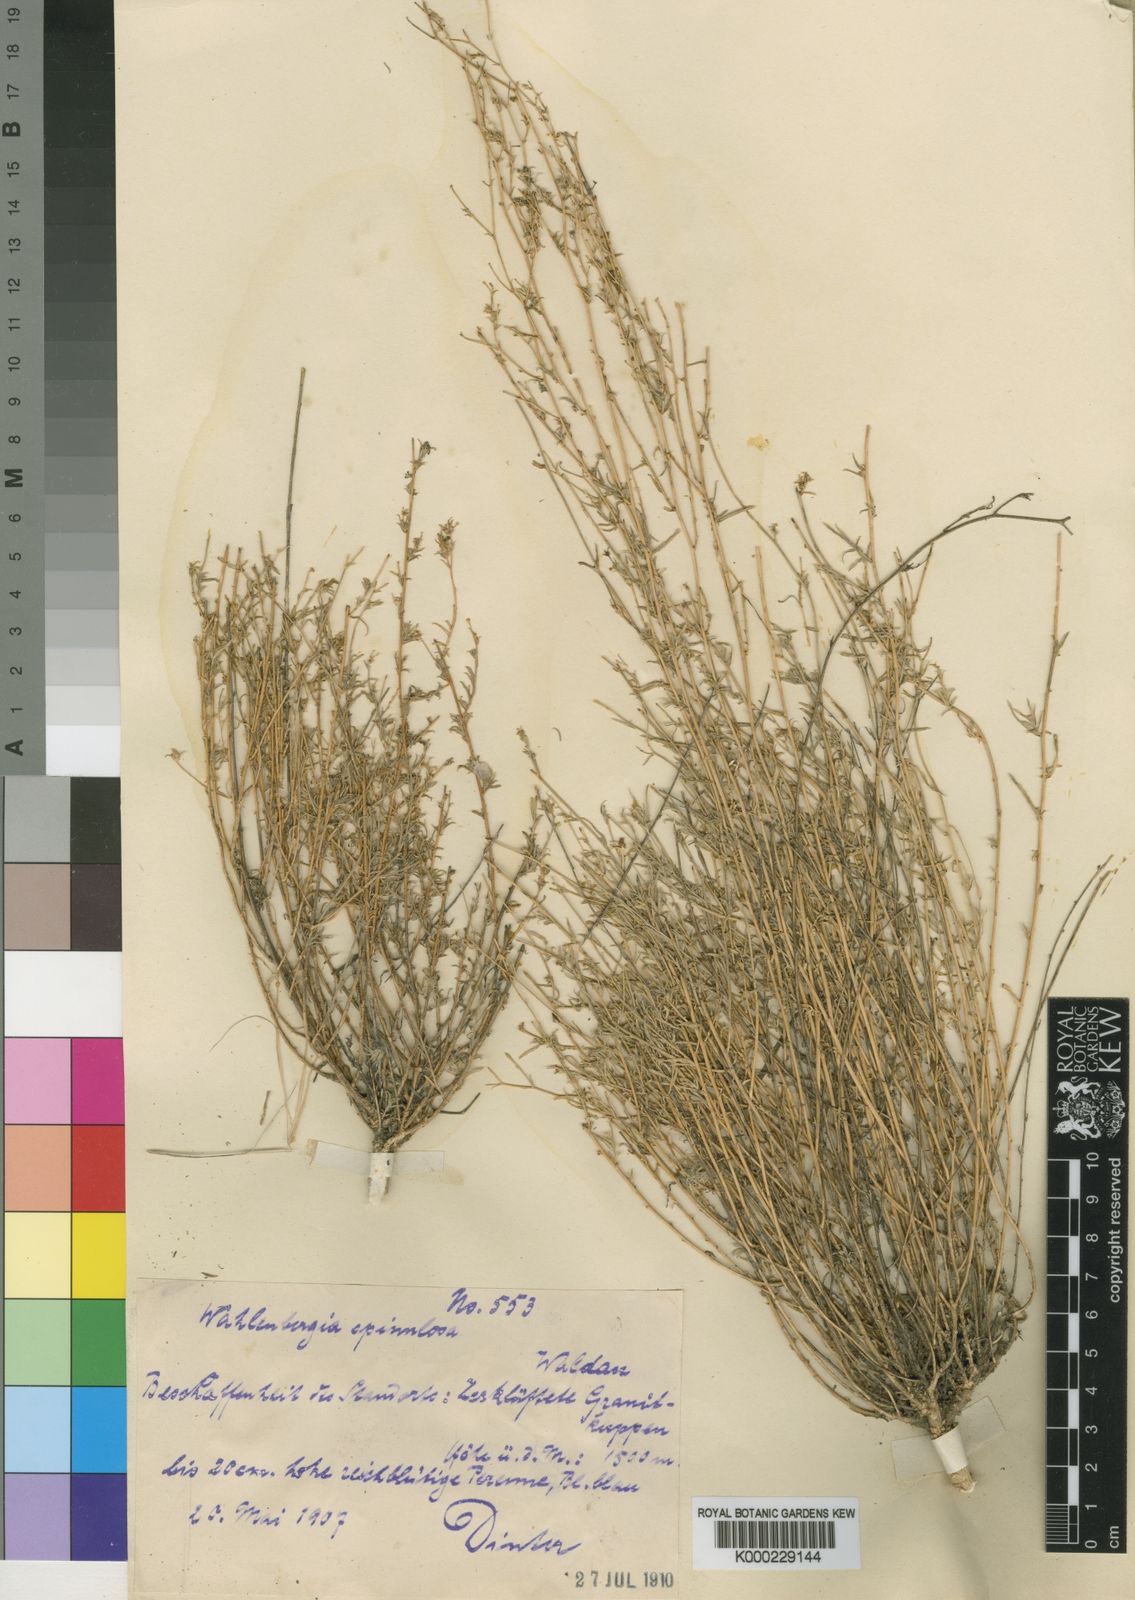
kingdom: Plantae
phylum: Tracheophyta
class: Magnoliopsida
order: Asterales
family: Campanulaceae
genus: Wahlenbergia
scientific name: Wahlenbergia
